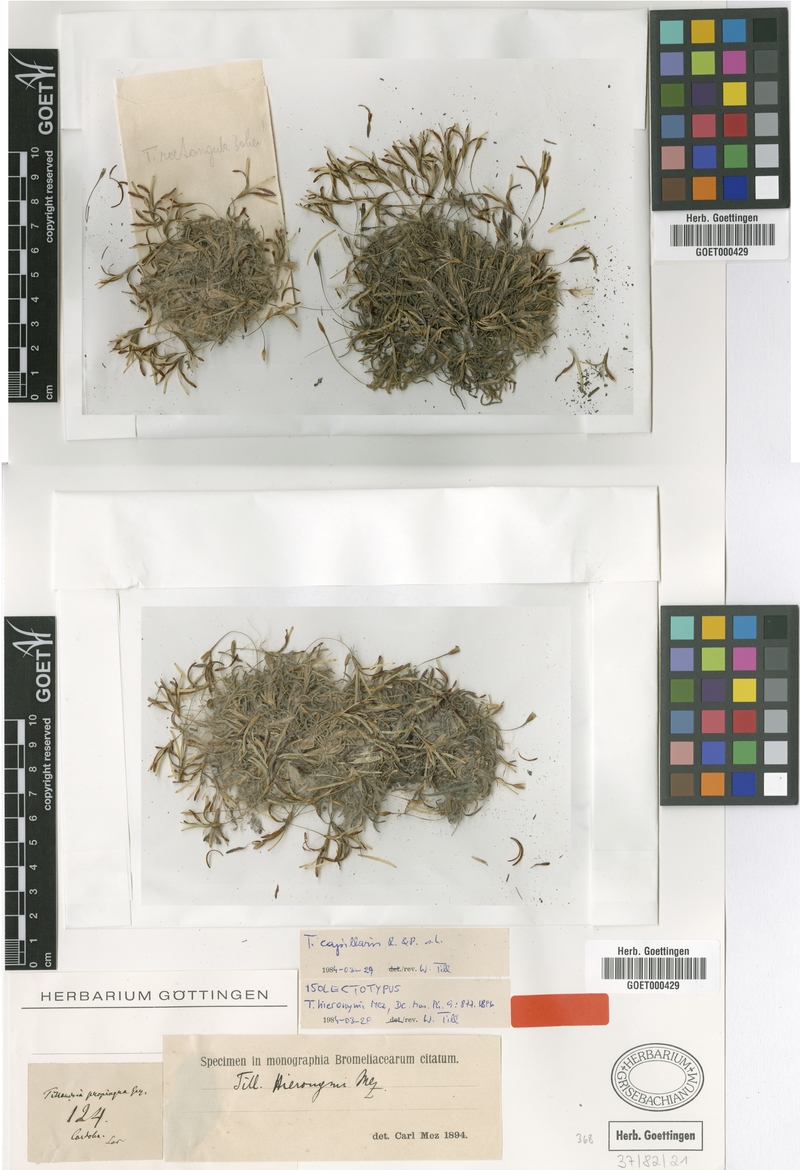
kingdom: Plantae
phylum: Tracheophyta
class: Liliopsida
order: Poales
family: Bromeliaceae
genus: Tillandsia
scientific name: Tillandsia capillaris
